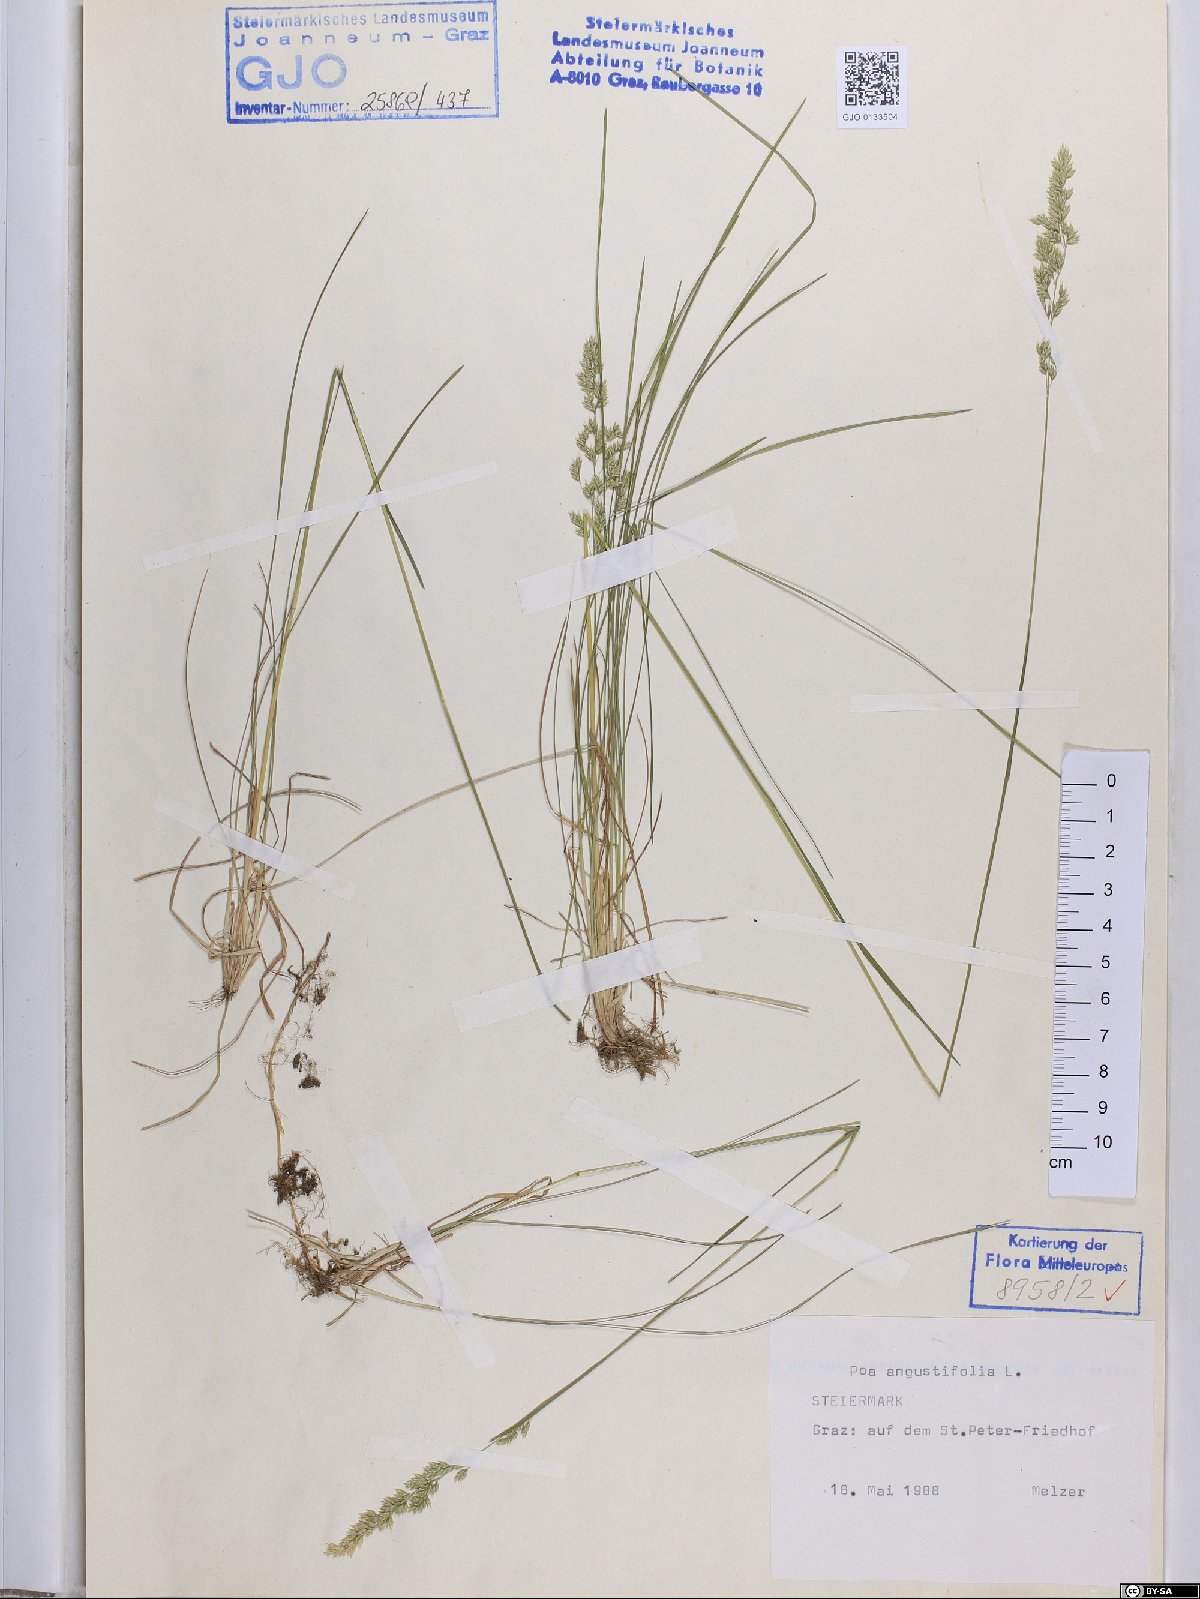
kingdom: Plantae
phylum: Tracheophyta
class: Liliopsida
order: Poales
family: Poaceae
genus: Poa
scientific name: Poa angustifolia
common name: Narrow-leaved meadow-grass
